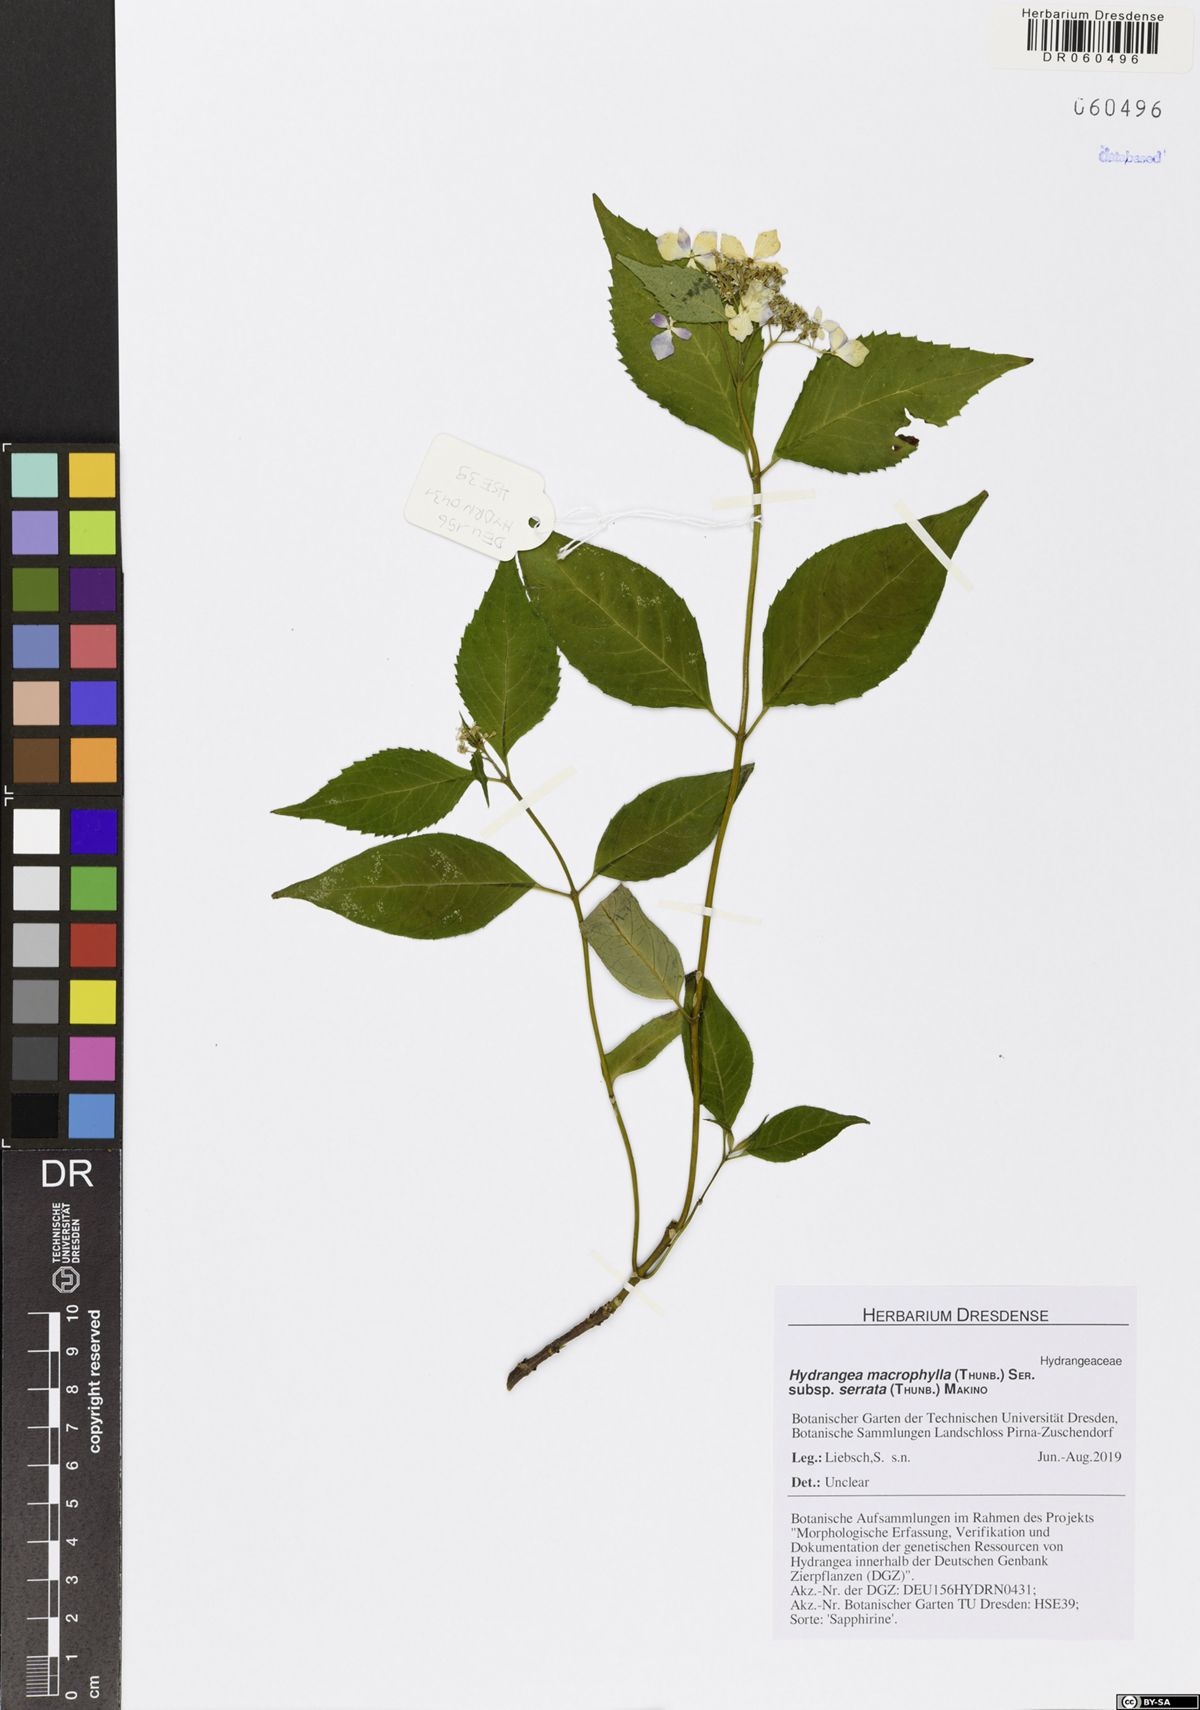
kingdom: Plantae
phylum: Tracheophyta
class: Magnoliopsida
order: Cornales
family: Hydrangeaceae
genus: Hydrangea
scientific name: Hydrangea serrata
